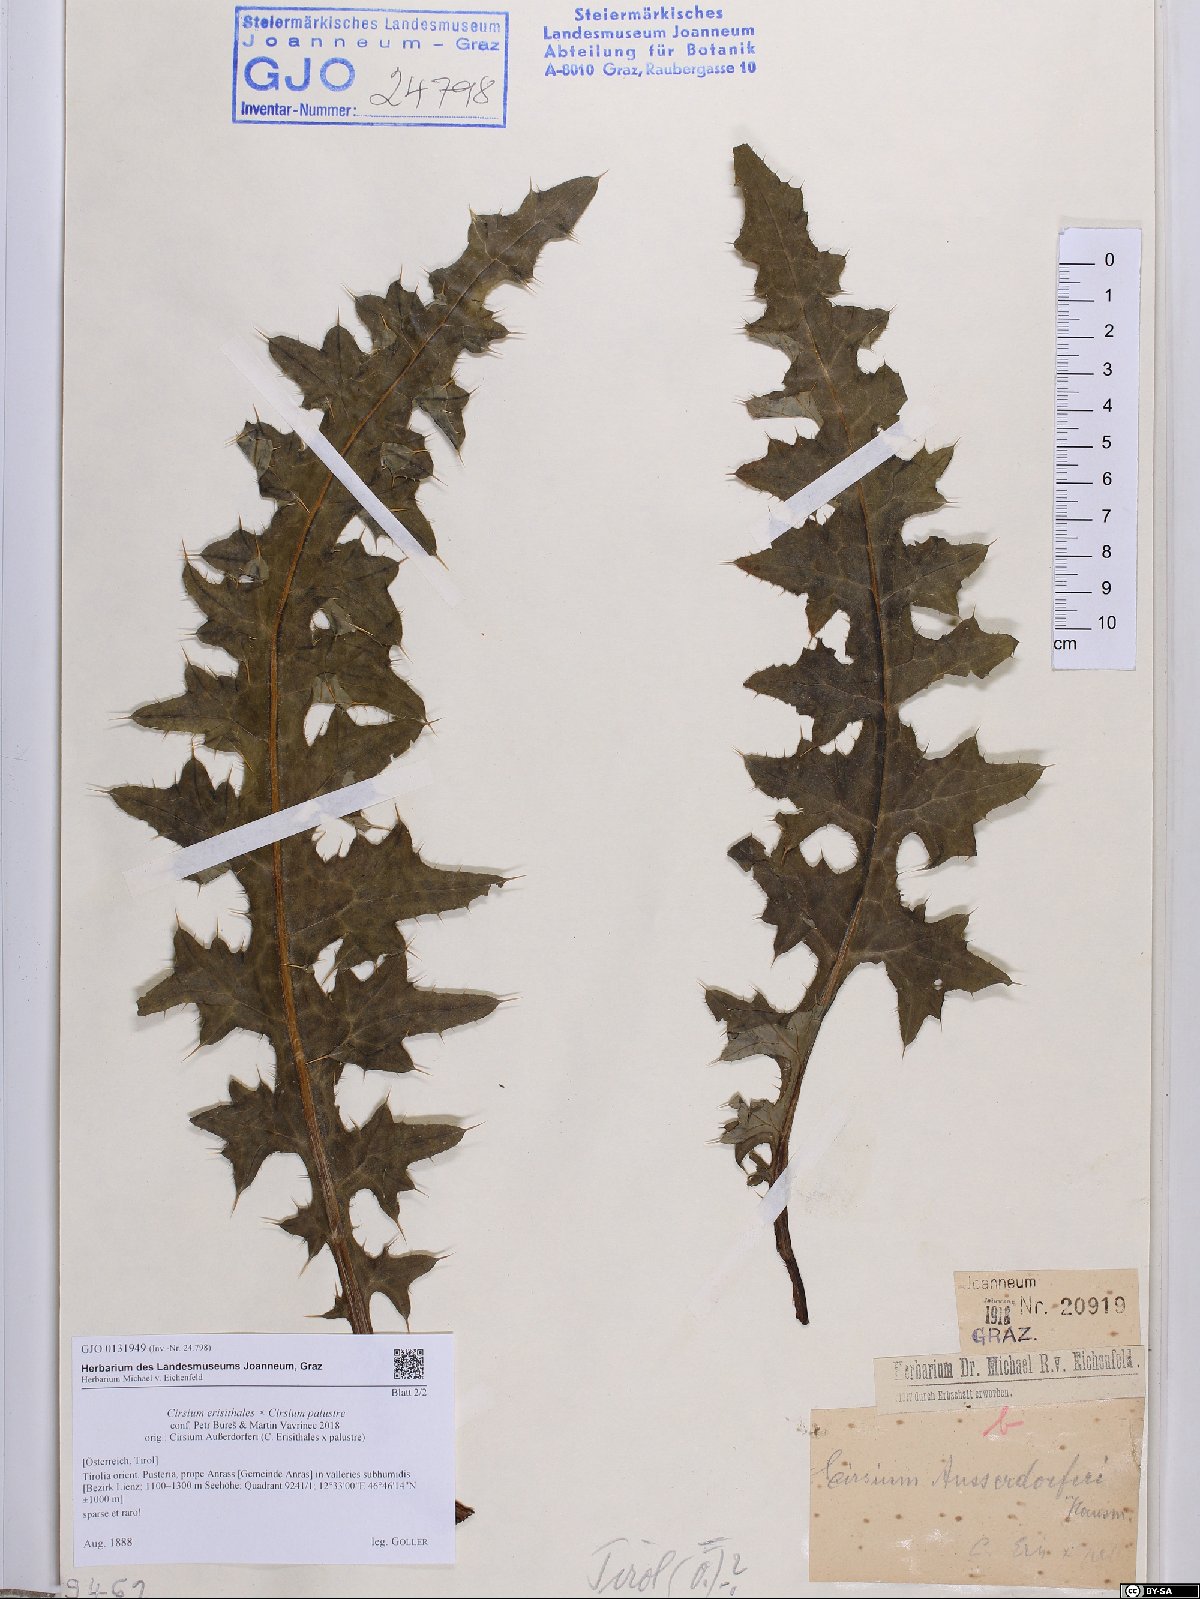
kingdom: Plantae
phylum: Tracheophyta
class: Magnoliopsida
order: Asterales
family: Asteraceae
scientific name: Asteraceae
